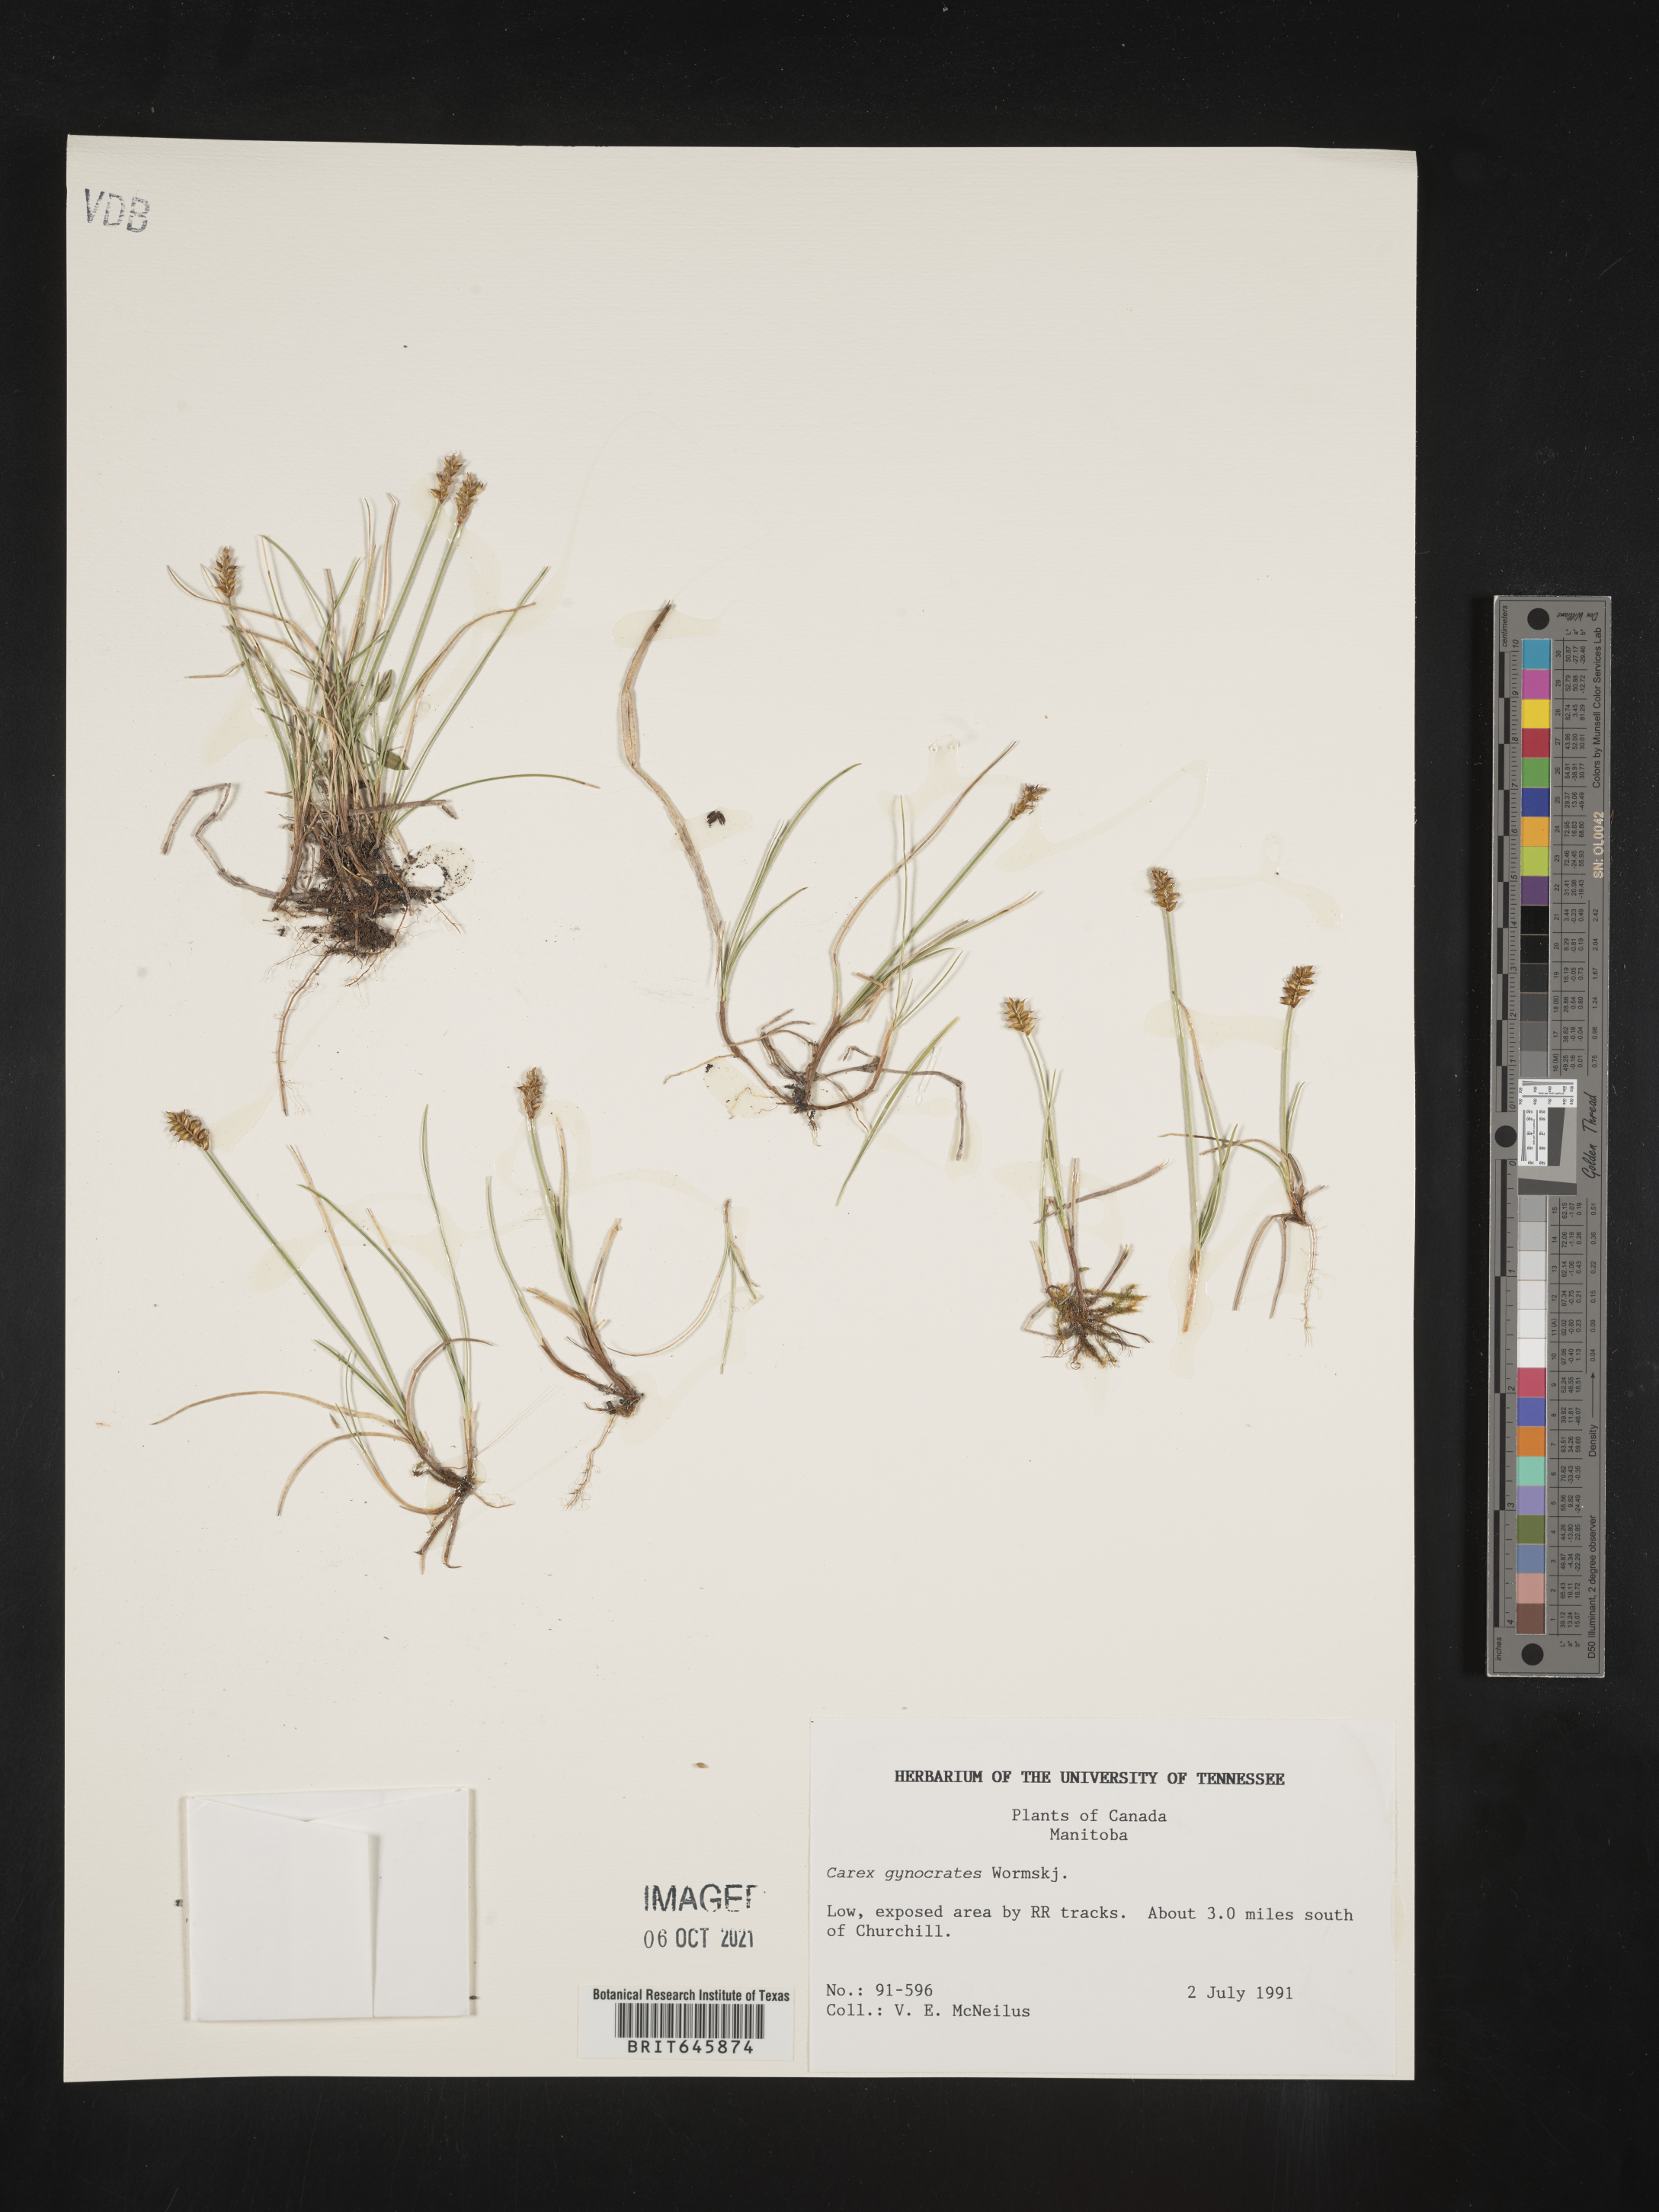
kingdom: Plantae
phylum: Tracheophyta
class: Liliopsida
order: Poales
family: Cyperaceae
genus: Carex
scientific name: Carex nardina
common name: Nard sedge
